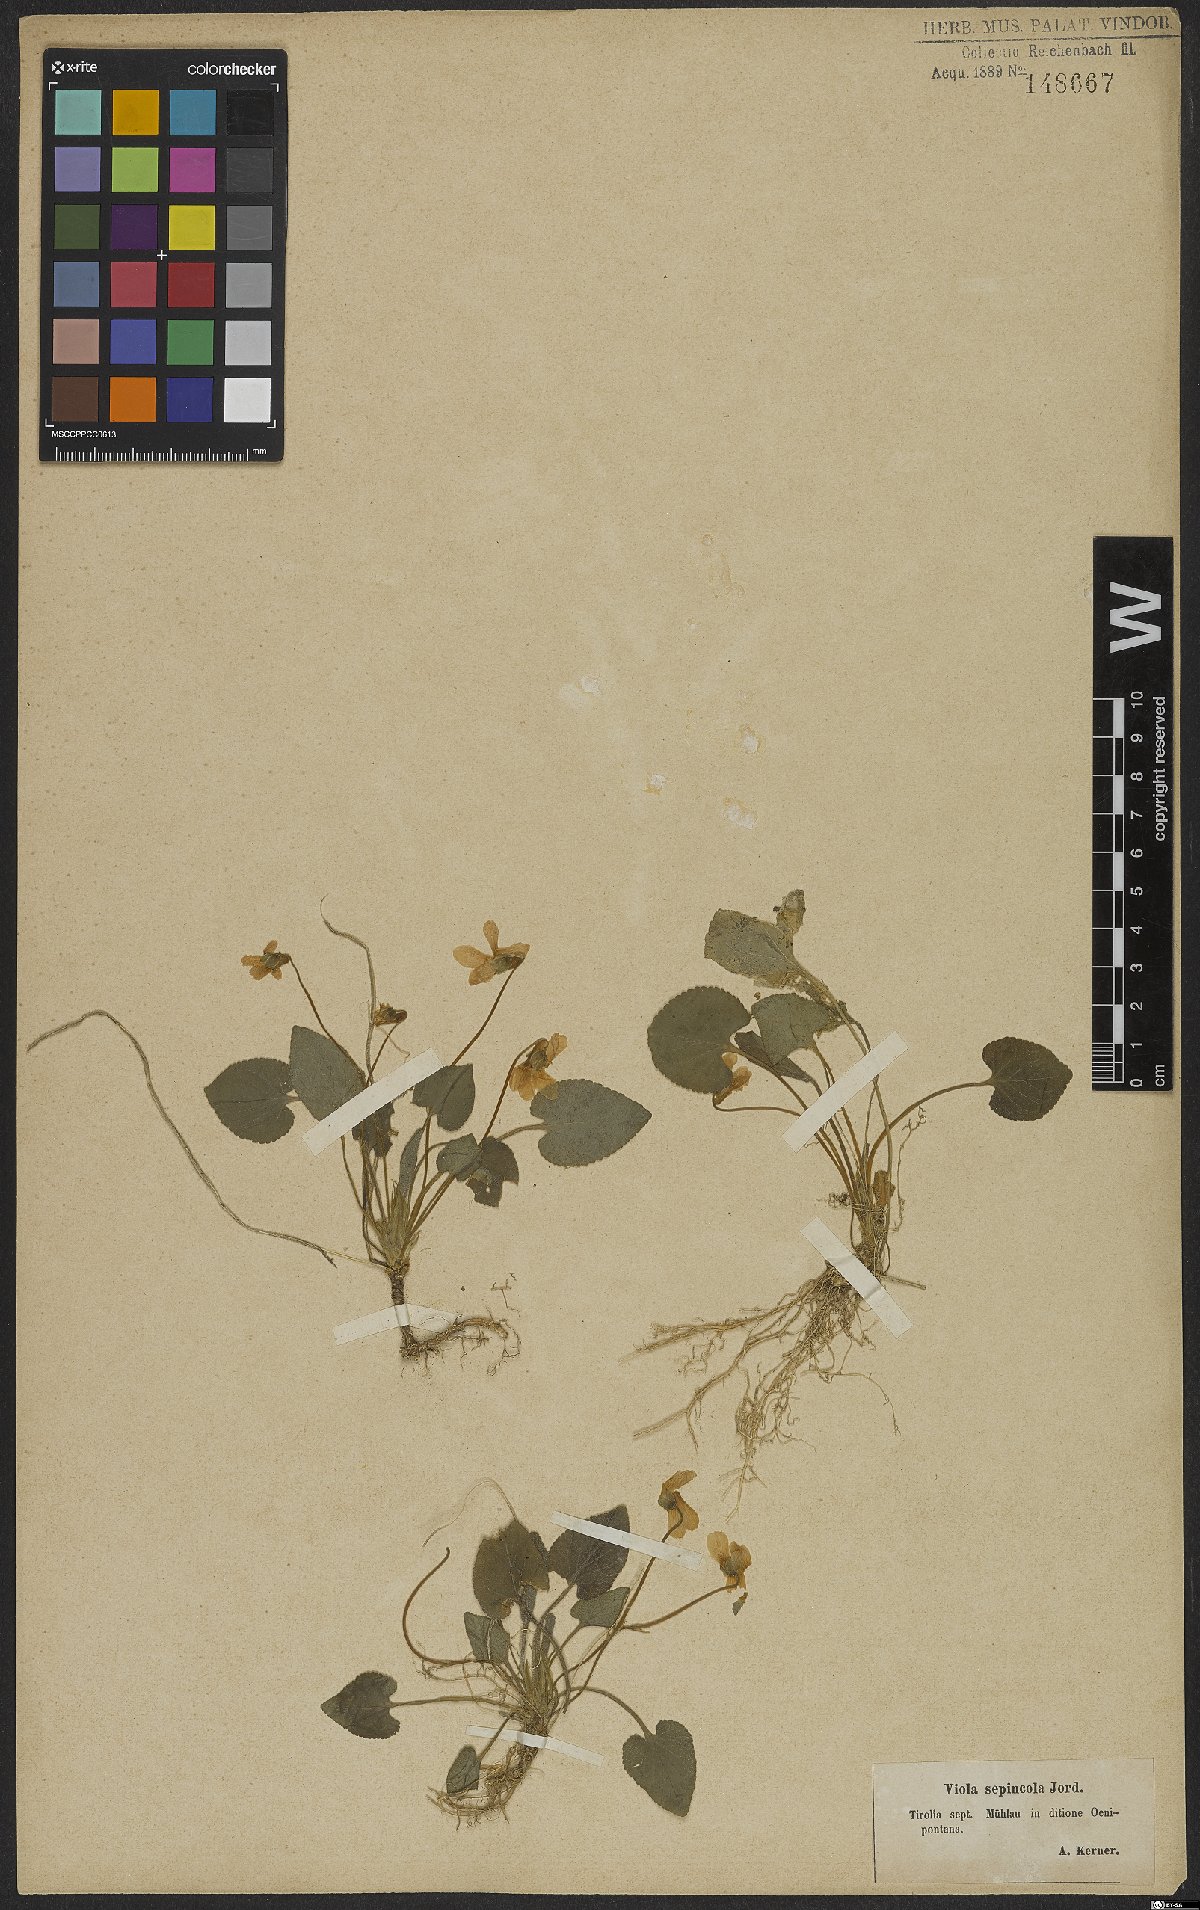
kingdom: Plantae
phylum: Tracheophyta
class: Magnoliopsida
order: Malpighiales
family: Violaceae
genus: Viola
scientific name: Viola suavis
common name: Russian violet
